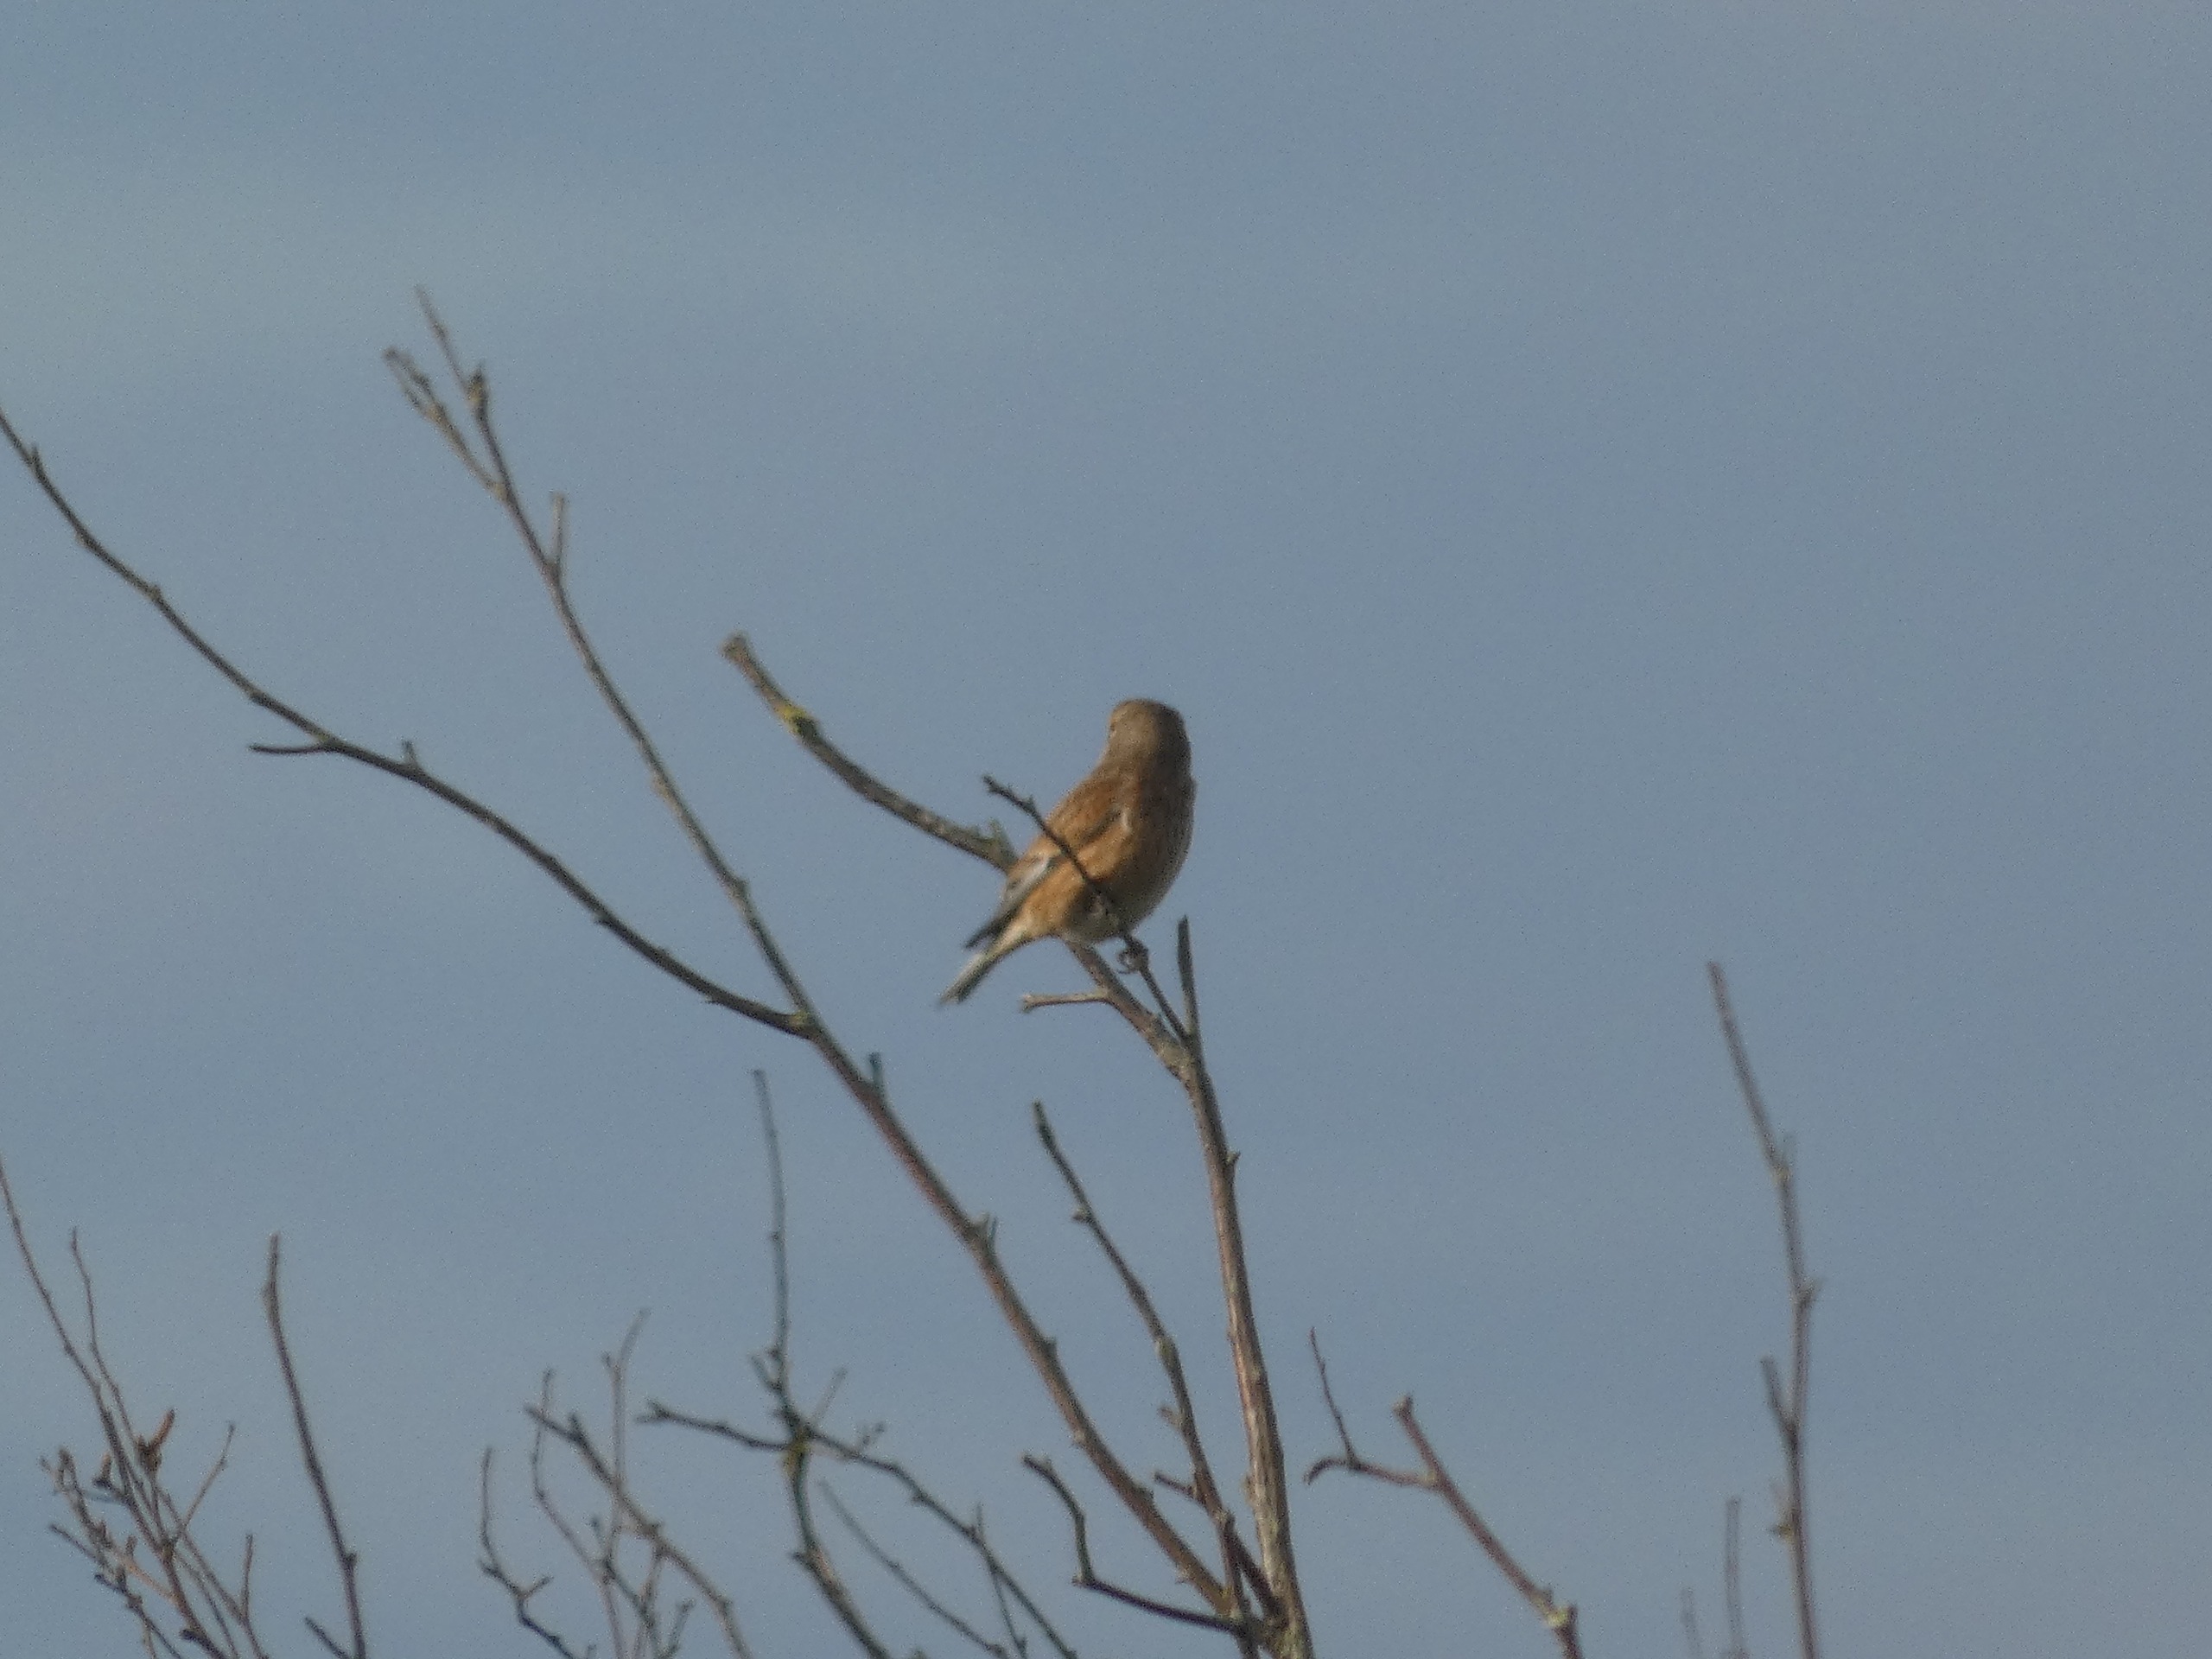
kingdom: Animalia
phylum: Chordata
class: Aves
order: Passeriformes
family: Fringillidae
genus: Linaria
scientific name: Linaria cannabina
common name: Tornirisk
